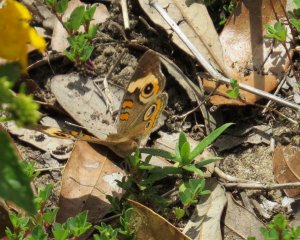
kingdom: Animalia
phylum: Arthropoda
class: Insecta
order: Lepidoptera
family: Nymphalidae
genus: Junonia
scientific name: Junonia coenia
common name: Common Buckeye
